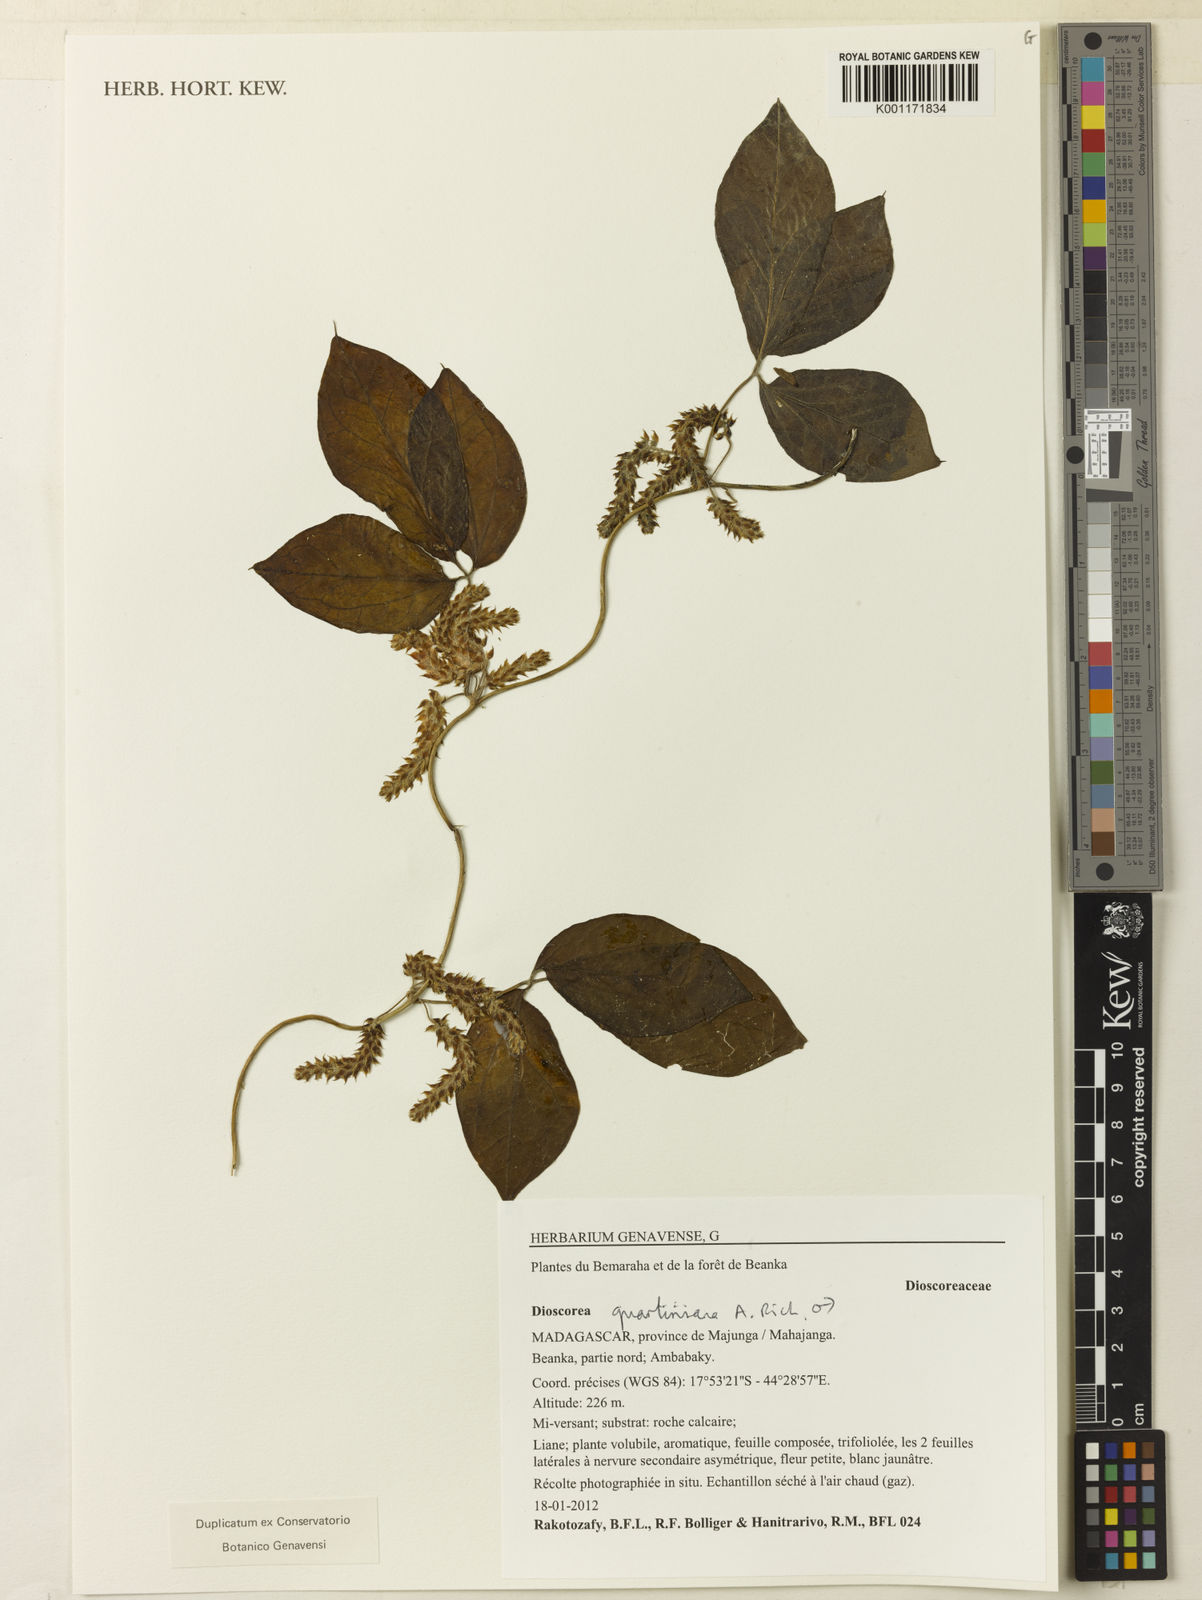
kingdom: Plantae
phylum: Tracheophyta
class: Liliopsida
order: Dioscoreales
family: Dioscoreaceae
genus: Dioscorea
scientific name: Dioscorea quartiniana
